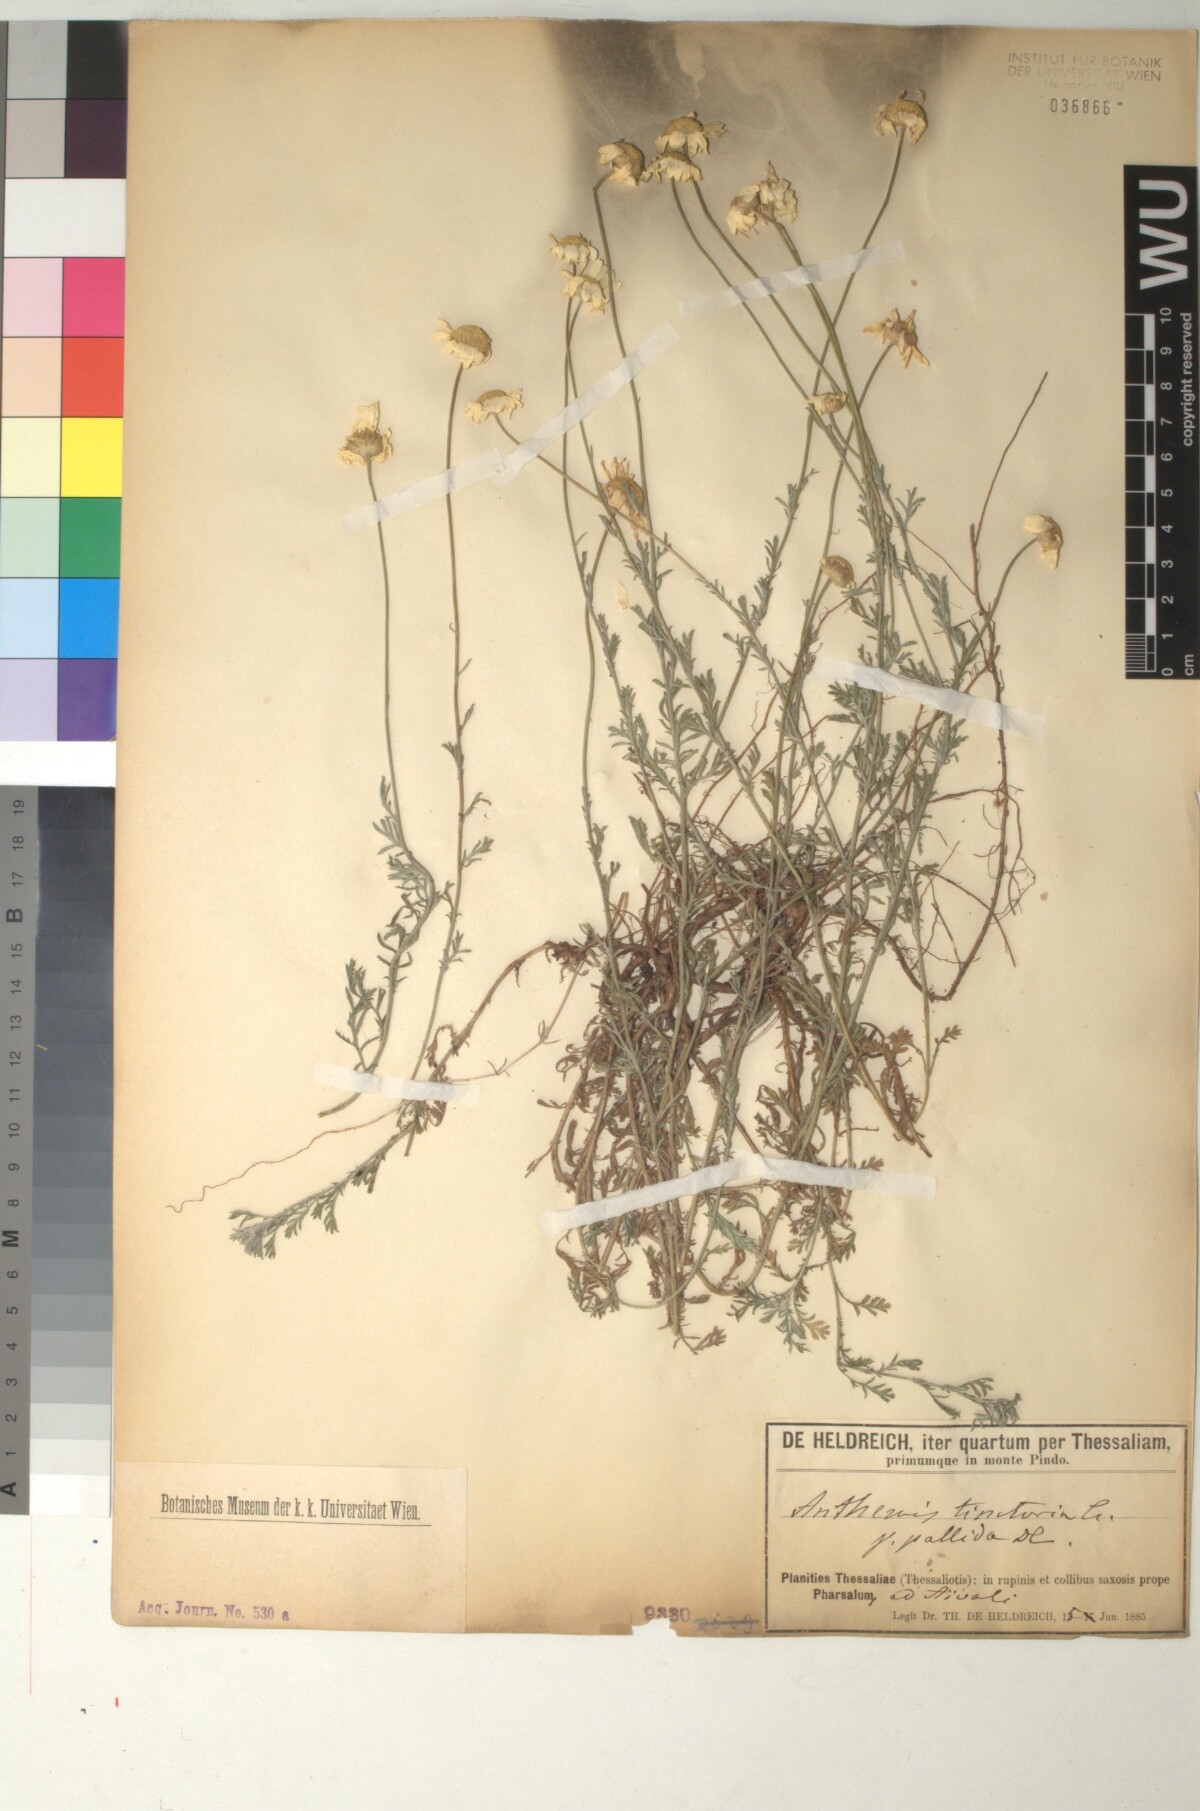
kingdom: Plantae
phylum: Tracheophyta
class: Magnoliopsida
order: Asterales
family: Asteraceae
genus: Cota
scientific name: Cota tinctoria
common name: Golden chamomile
